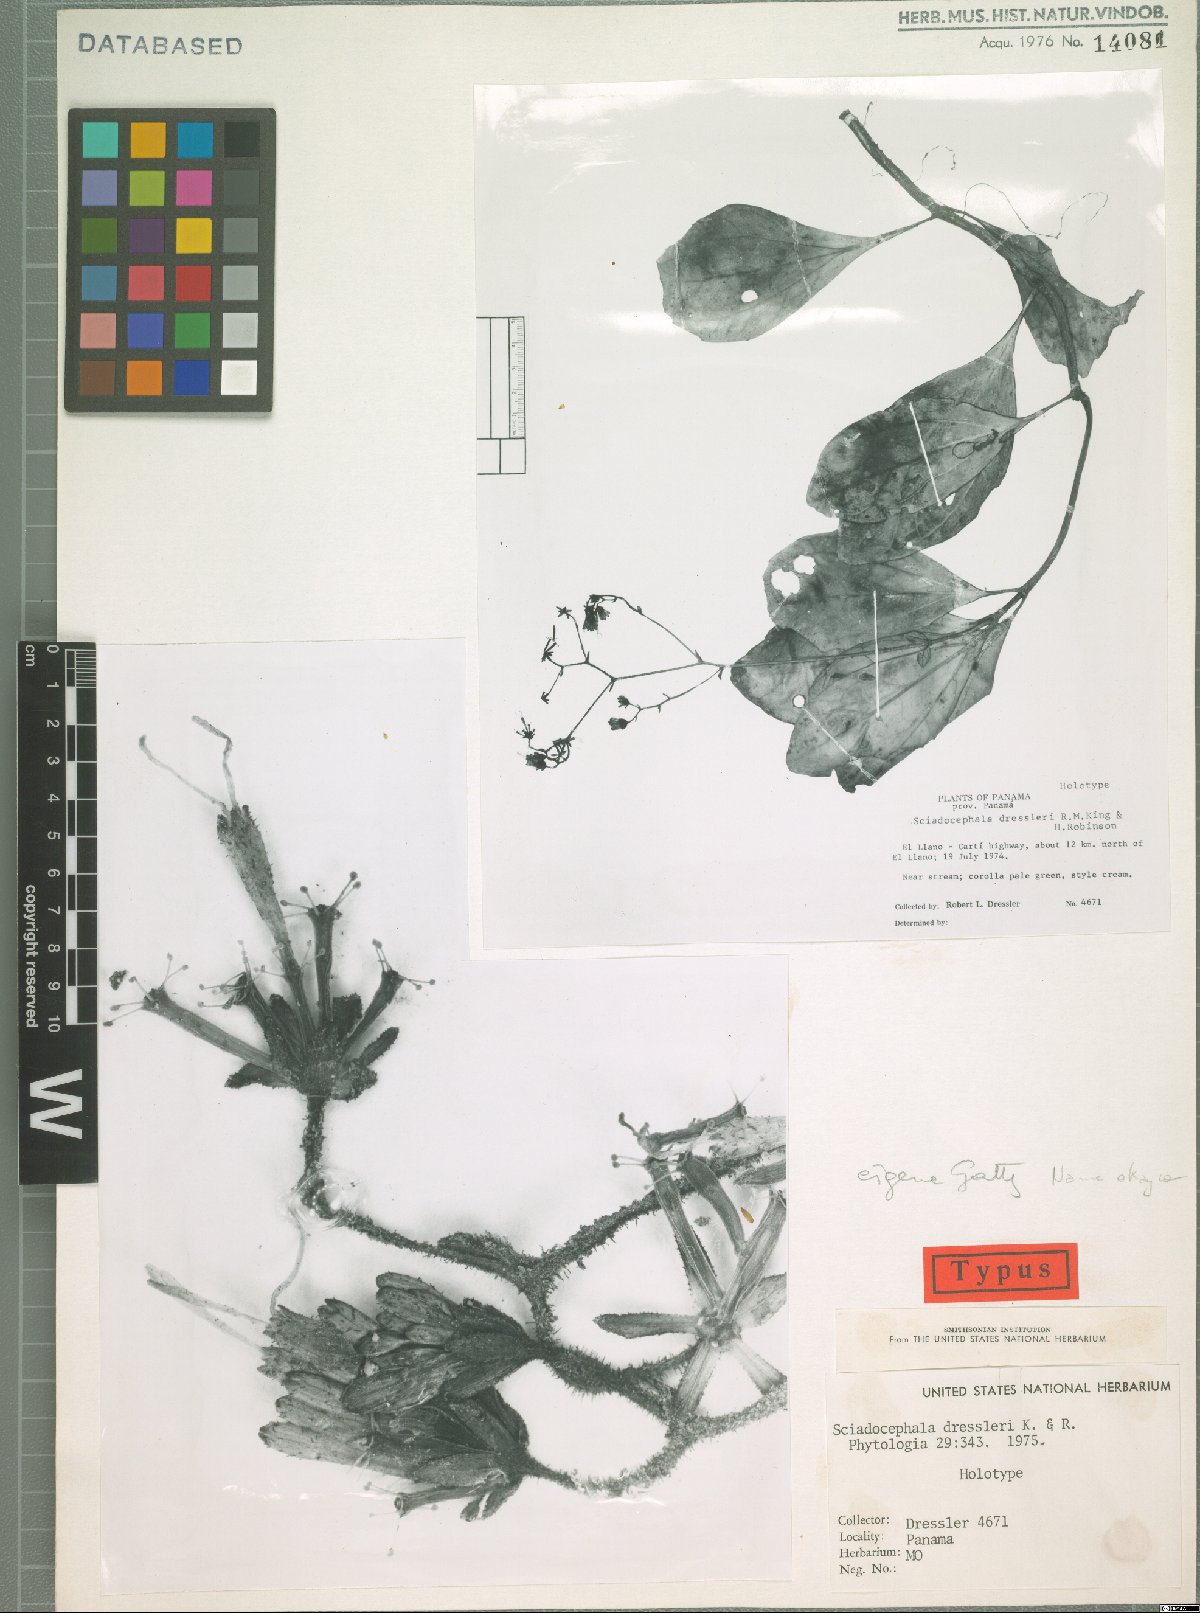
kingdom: Plantae
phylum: Tracheophyta
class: Magnoliopsida
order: Asterales
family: Asteraceae
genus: Sciadocephala
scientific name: Sciadocephala dressleri
